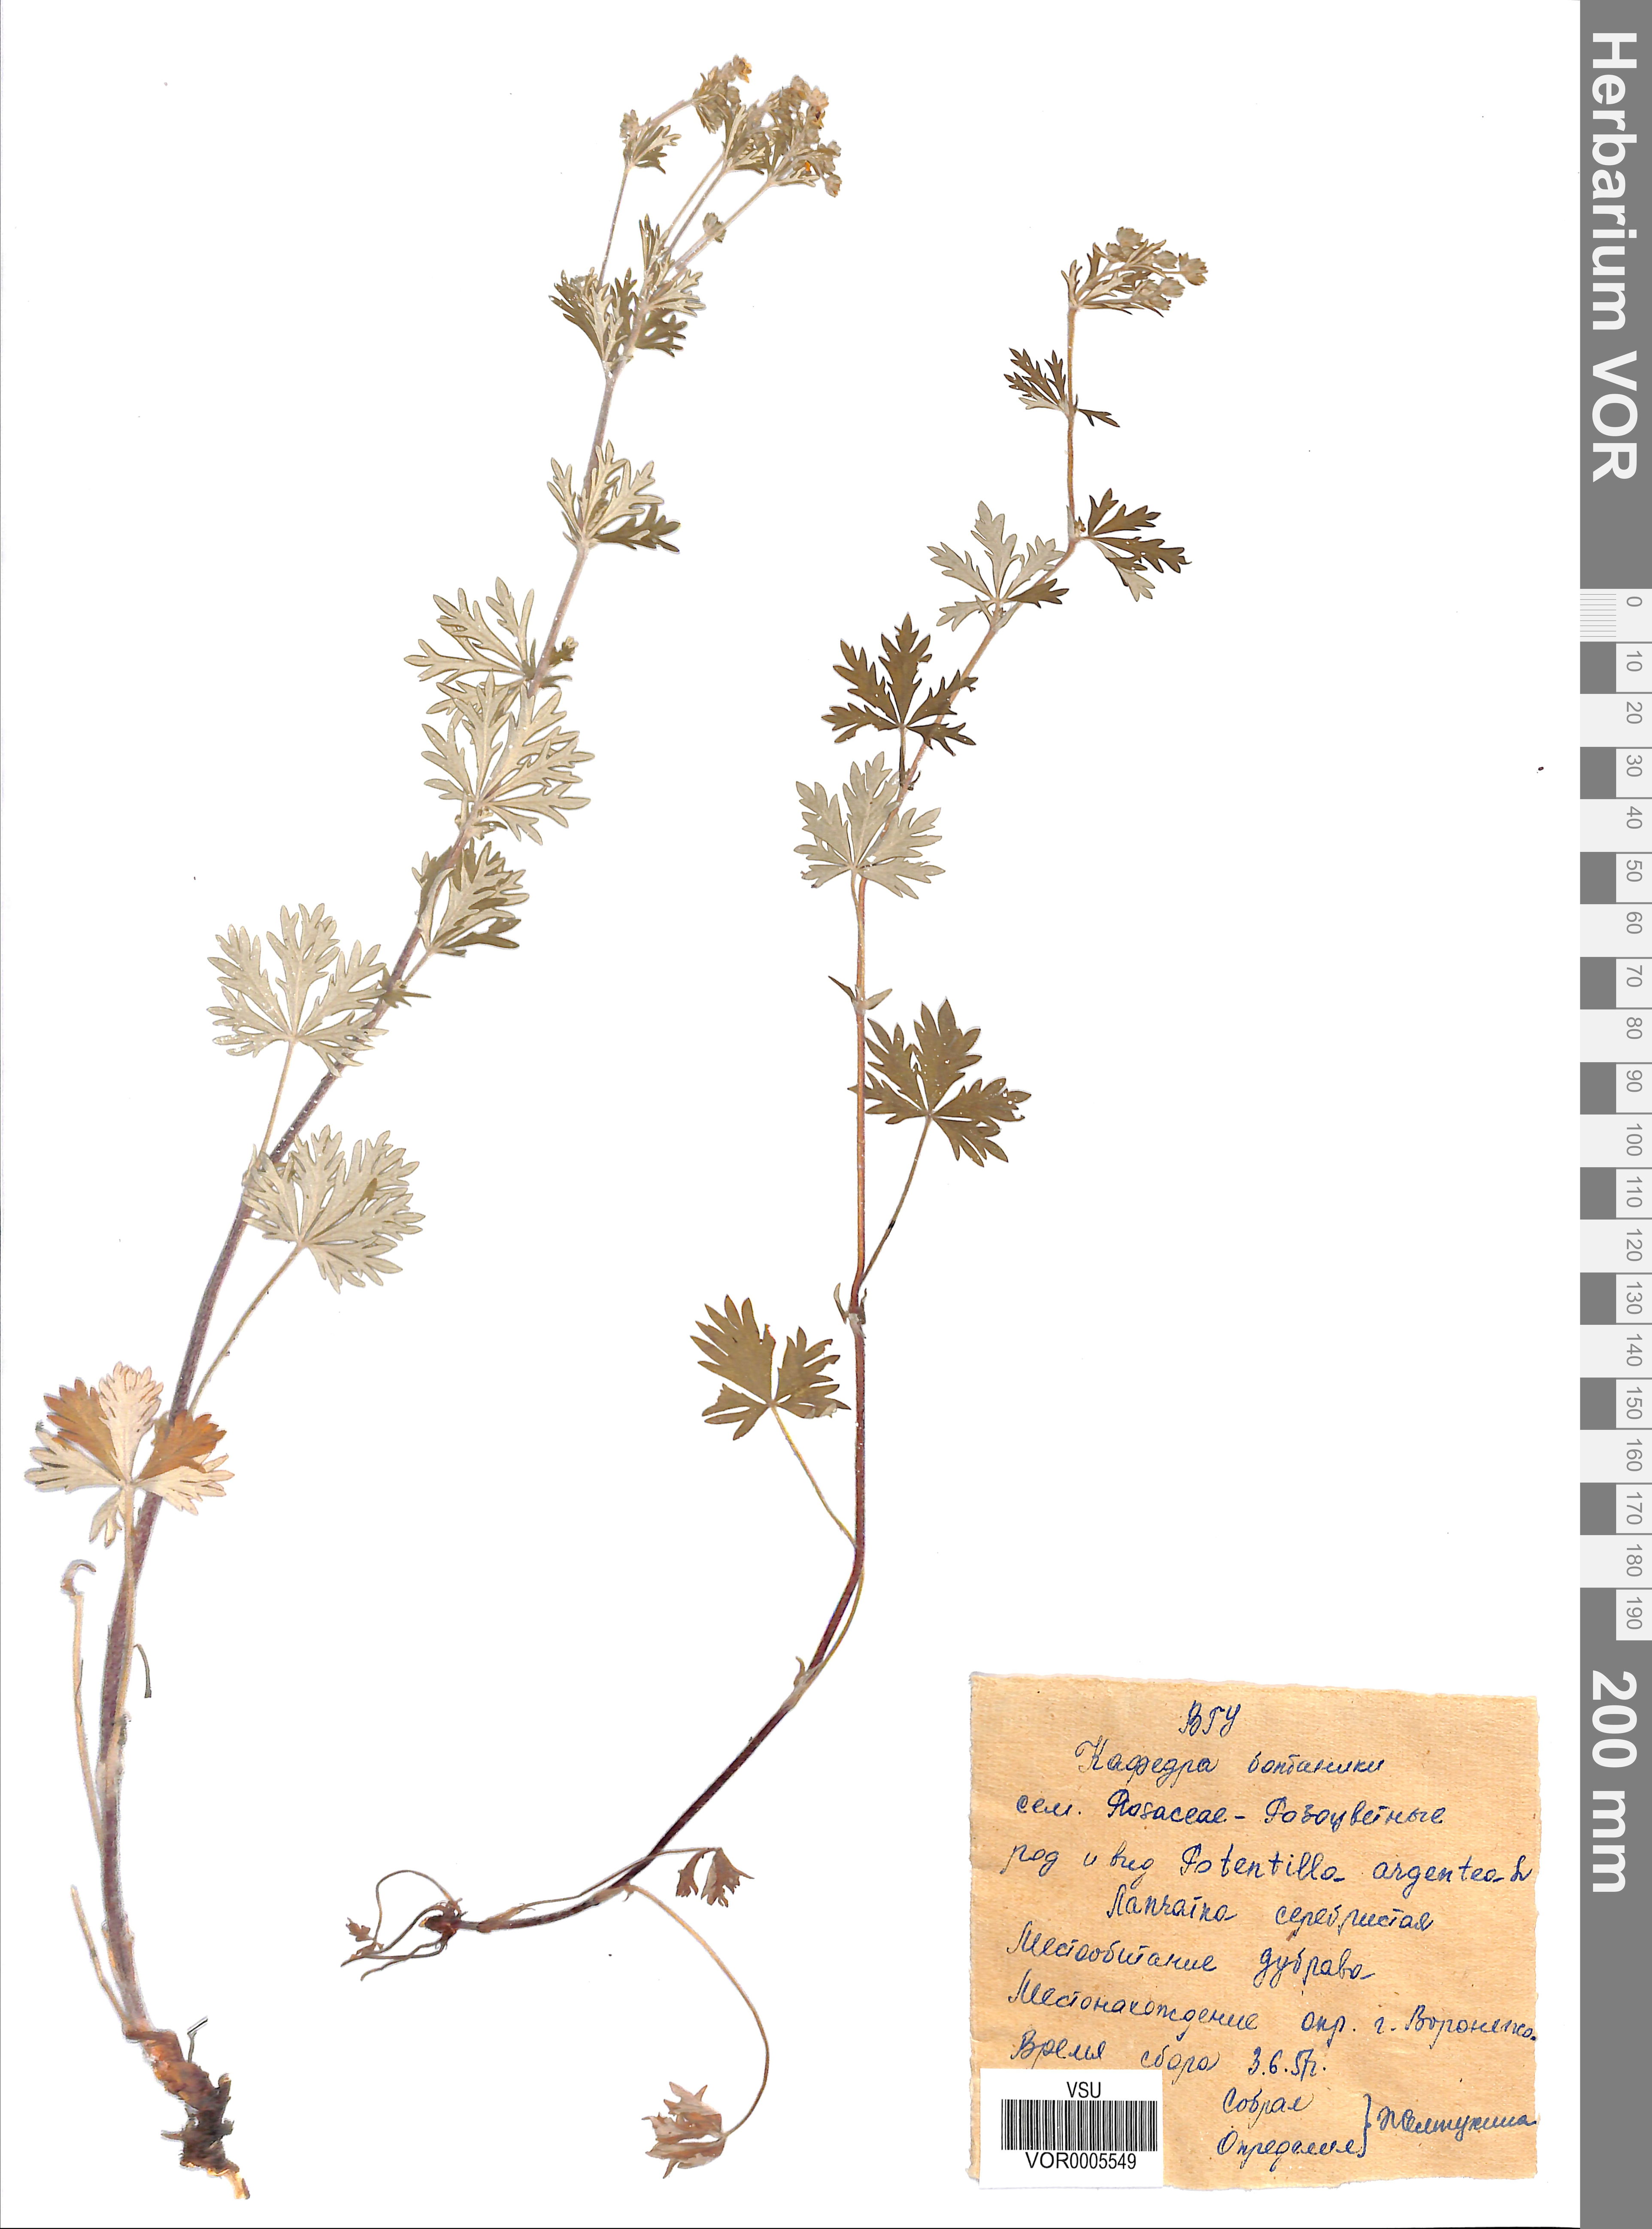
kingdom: Plantae
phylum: Tracheophyta
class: Magnoliopsida
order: Rosales
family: Rosaceae
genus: Potentilla
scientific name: Potentilla argentea
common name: Hoary cinquefoil
